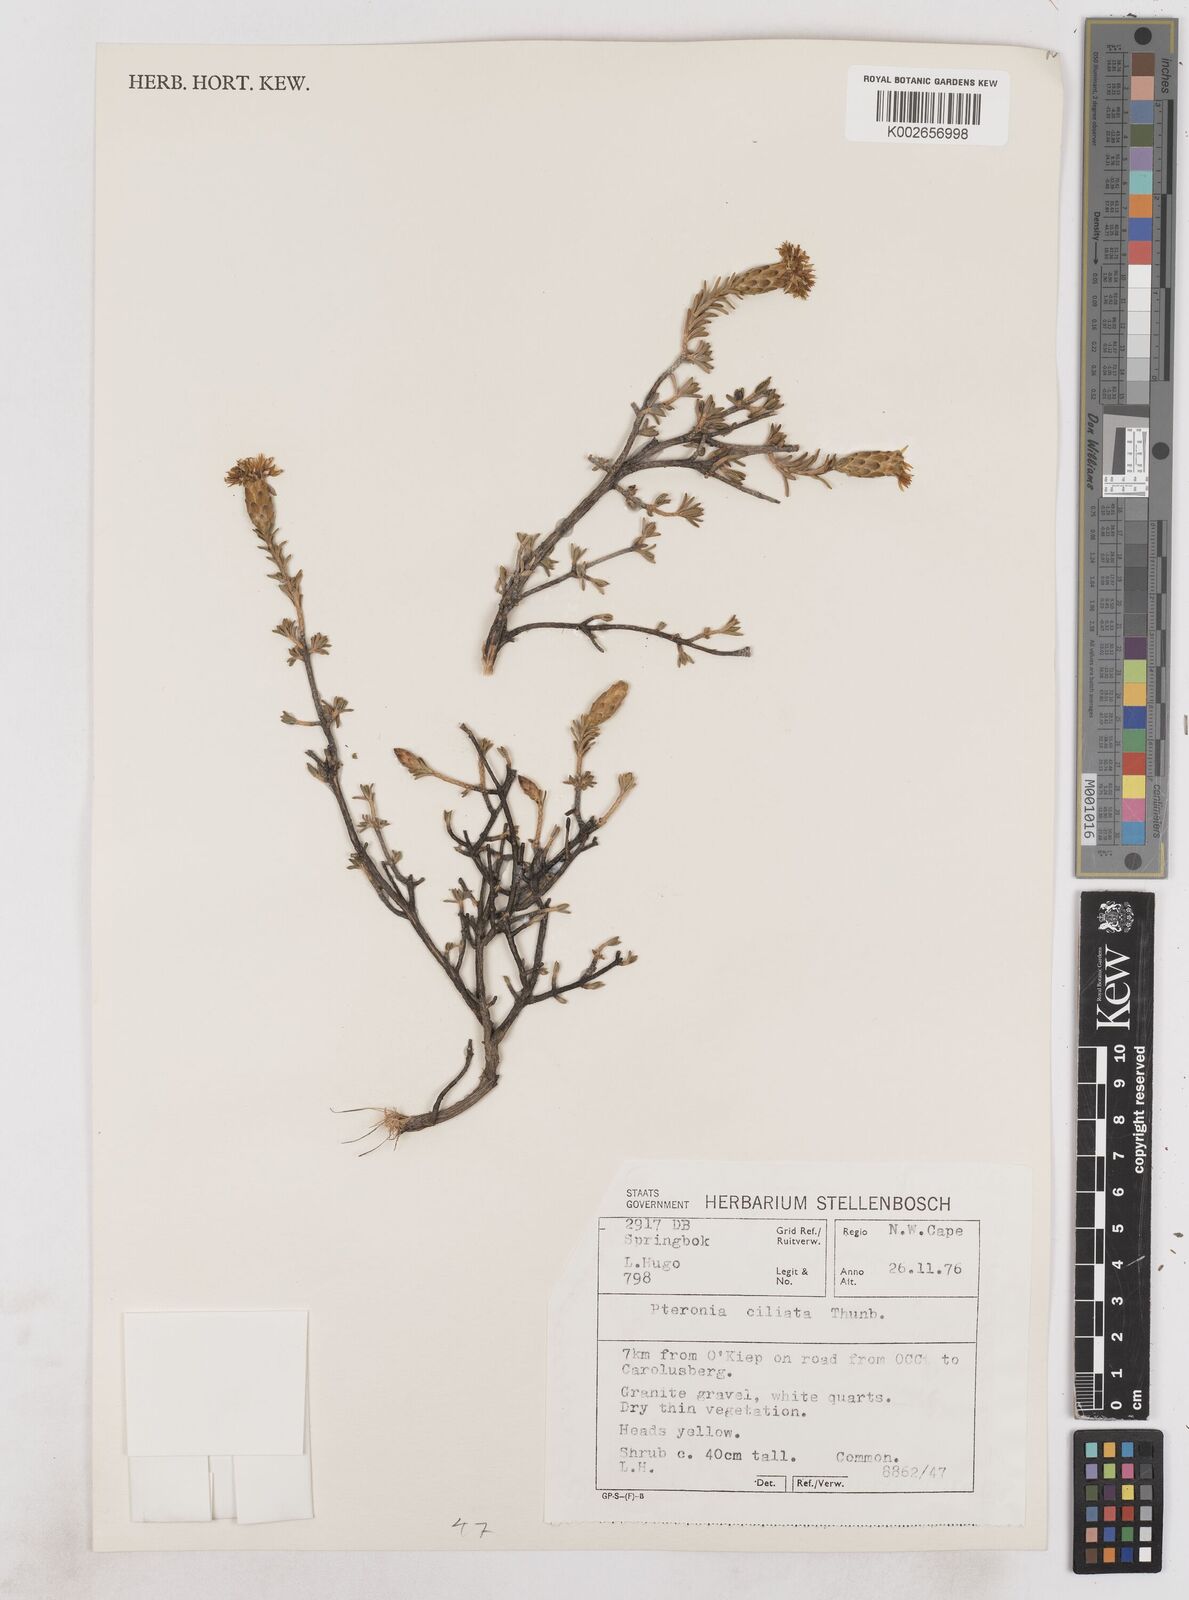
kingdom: Plantae
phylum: Tracheophyta
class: Magnoliopsida
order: Asterales
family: Asteraceae
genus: Pteronia
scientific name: Pteronia ciliata
